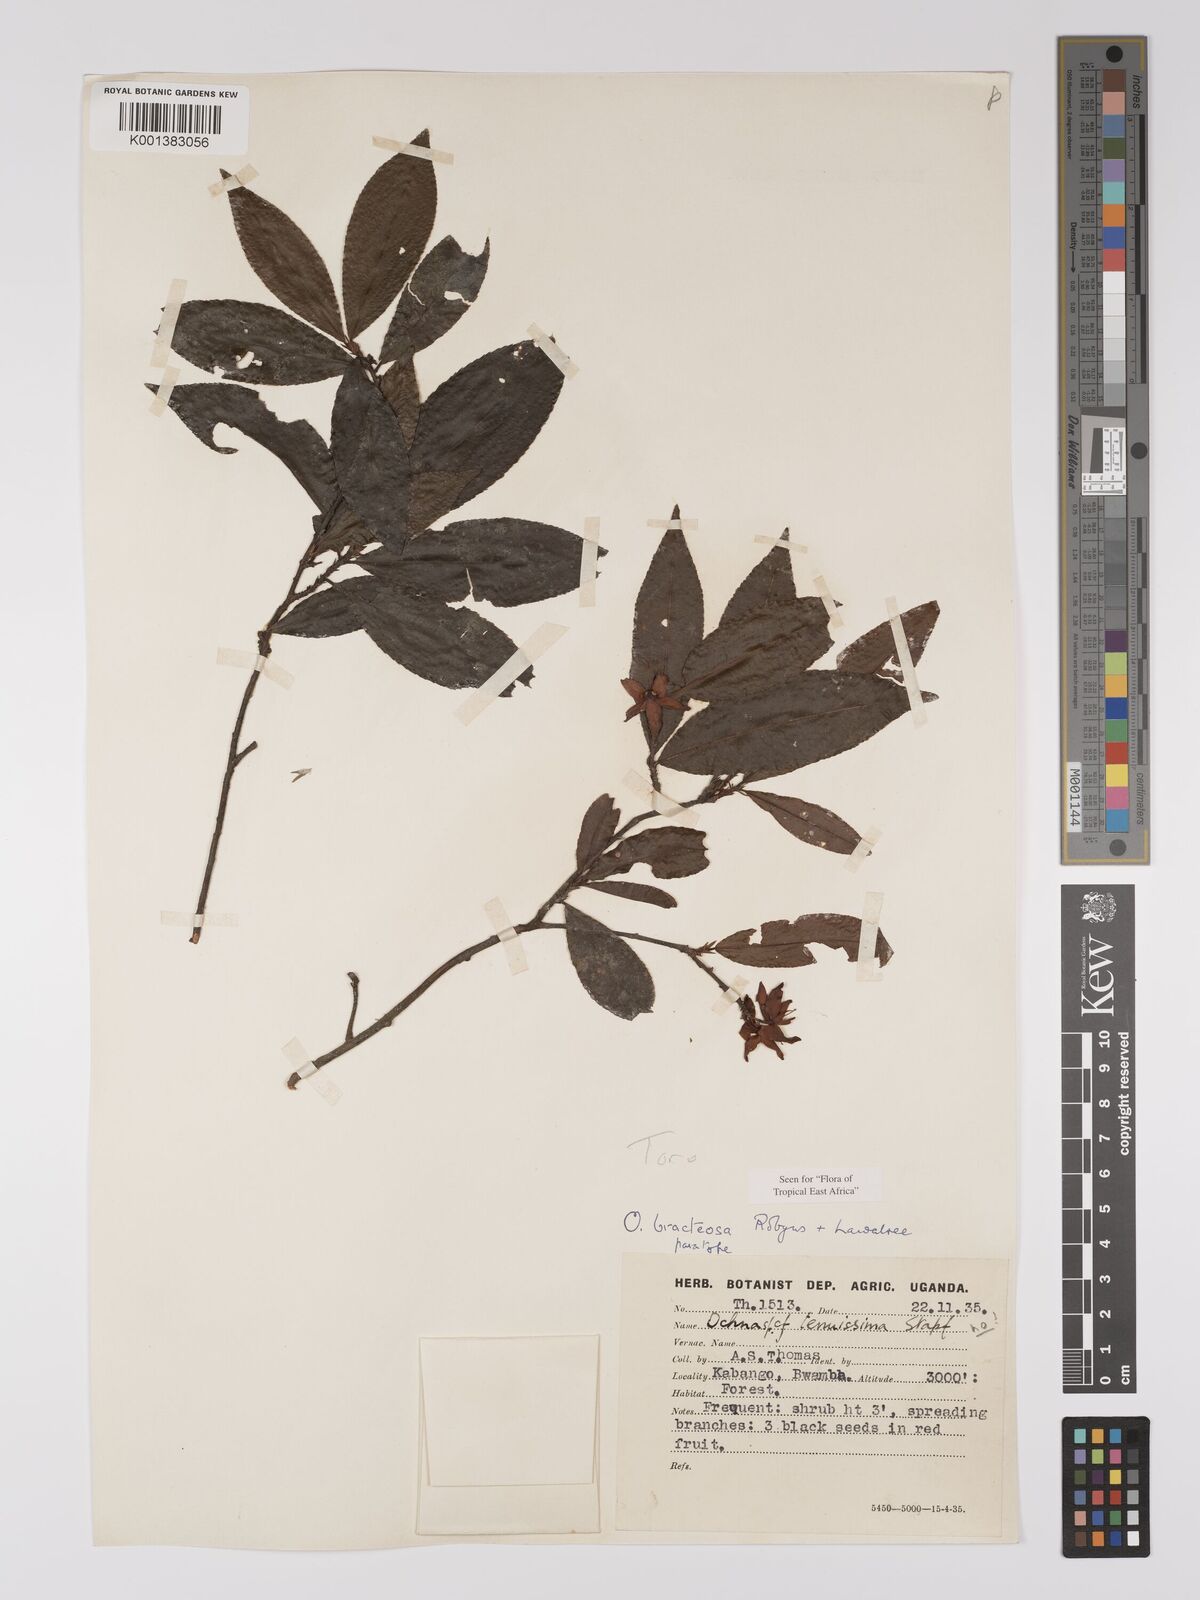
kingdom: Plantae
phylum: Tracheophyta
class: Magnoliopsida
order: Malpighiales
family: Ochnaceae
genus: Ochna
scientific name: Ochna bracteosa
